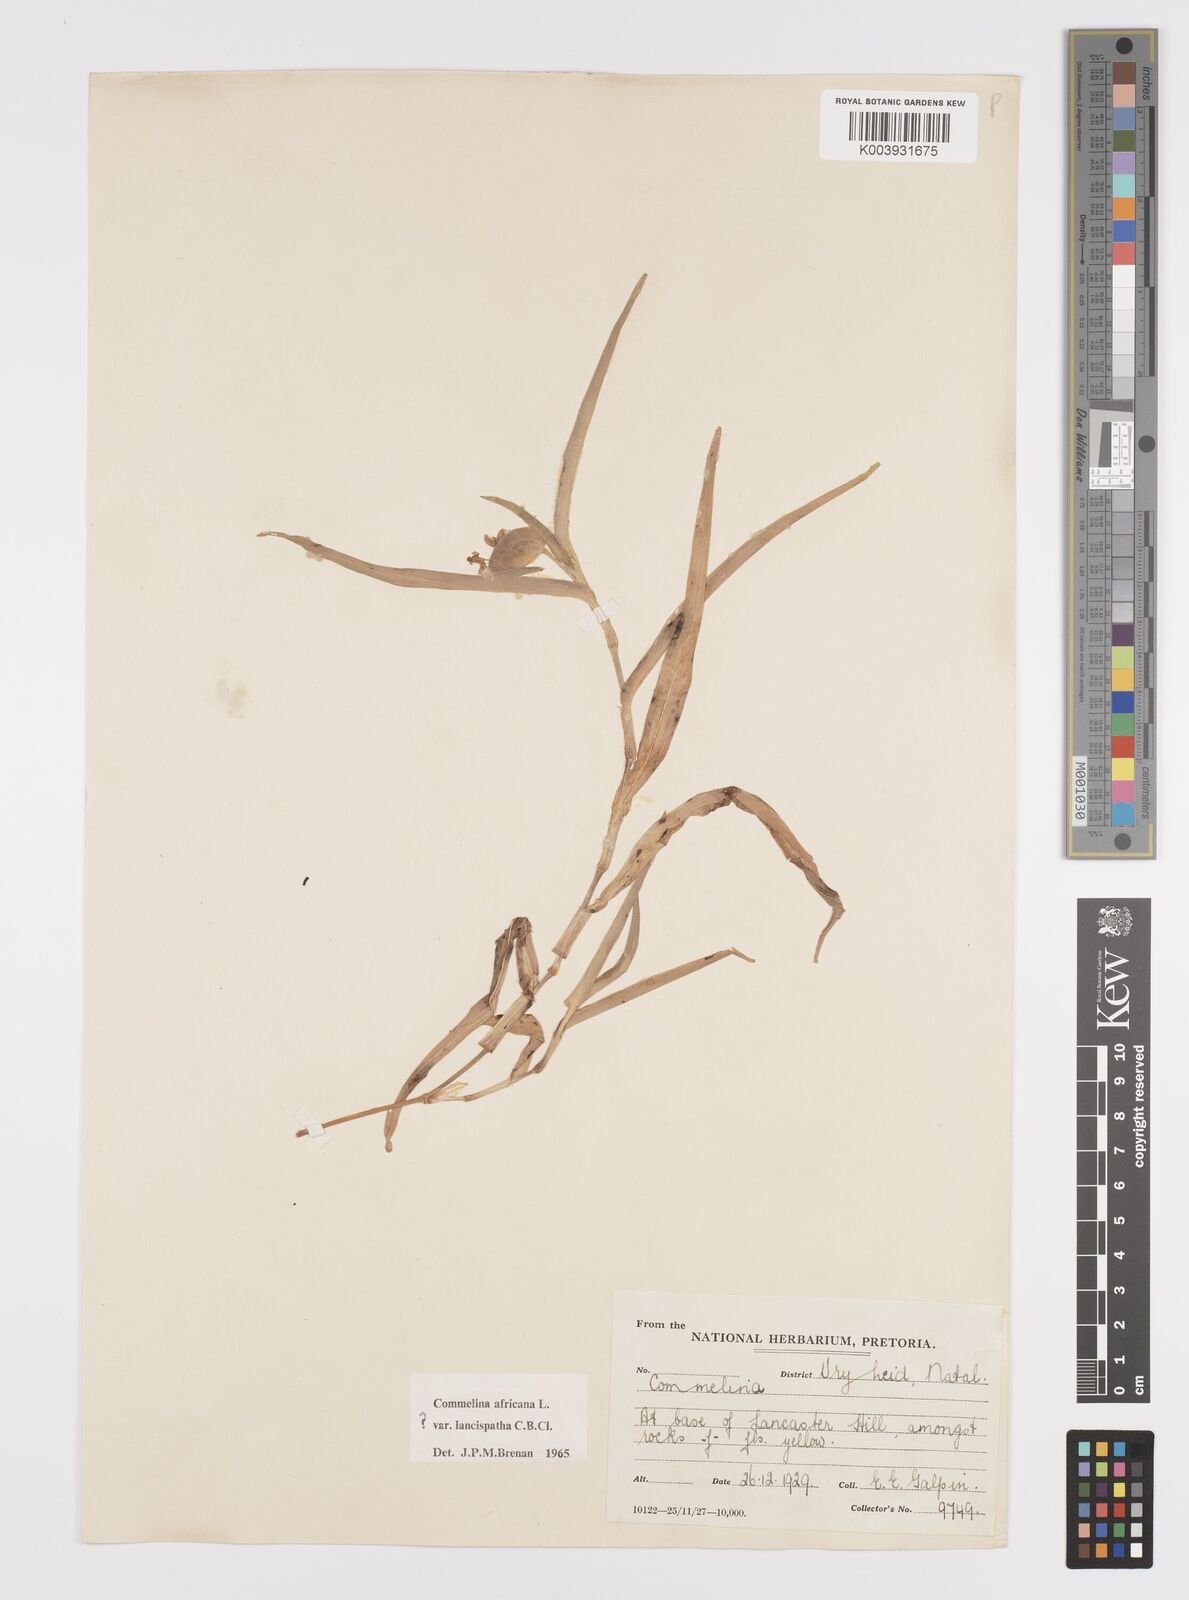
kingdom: Plantae
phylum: Tracheophyta
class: Liliopsida
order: Commelinales
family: Commelinaceae
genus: Commelina
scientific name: Commelina africana
